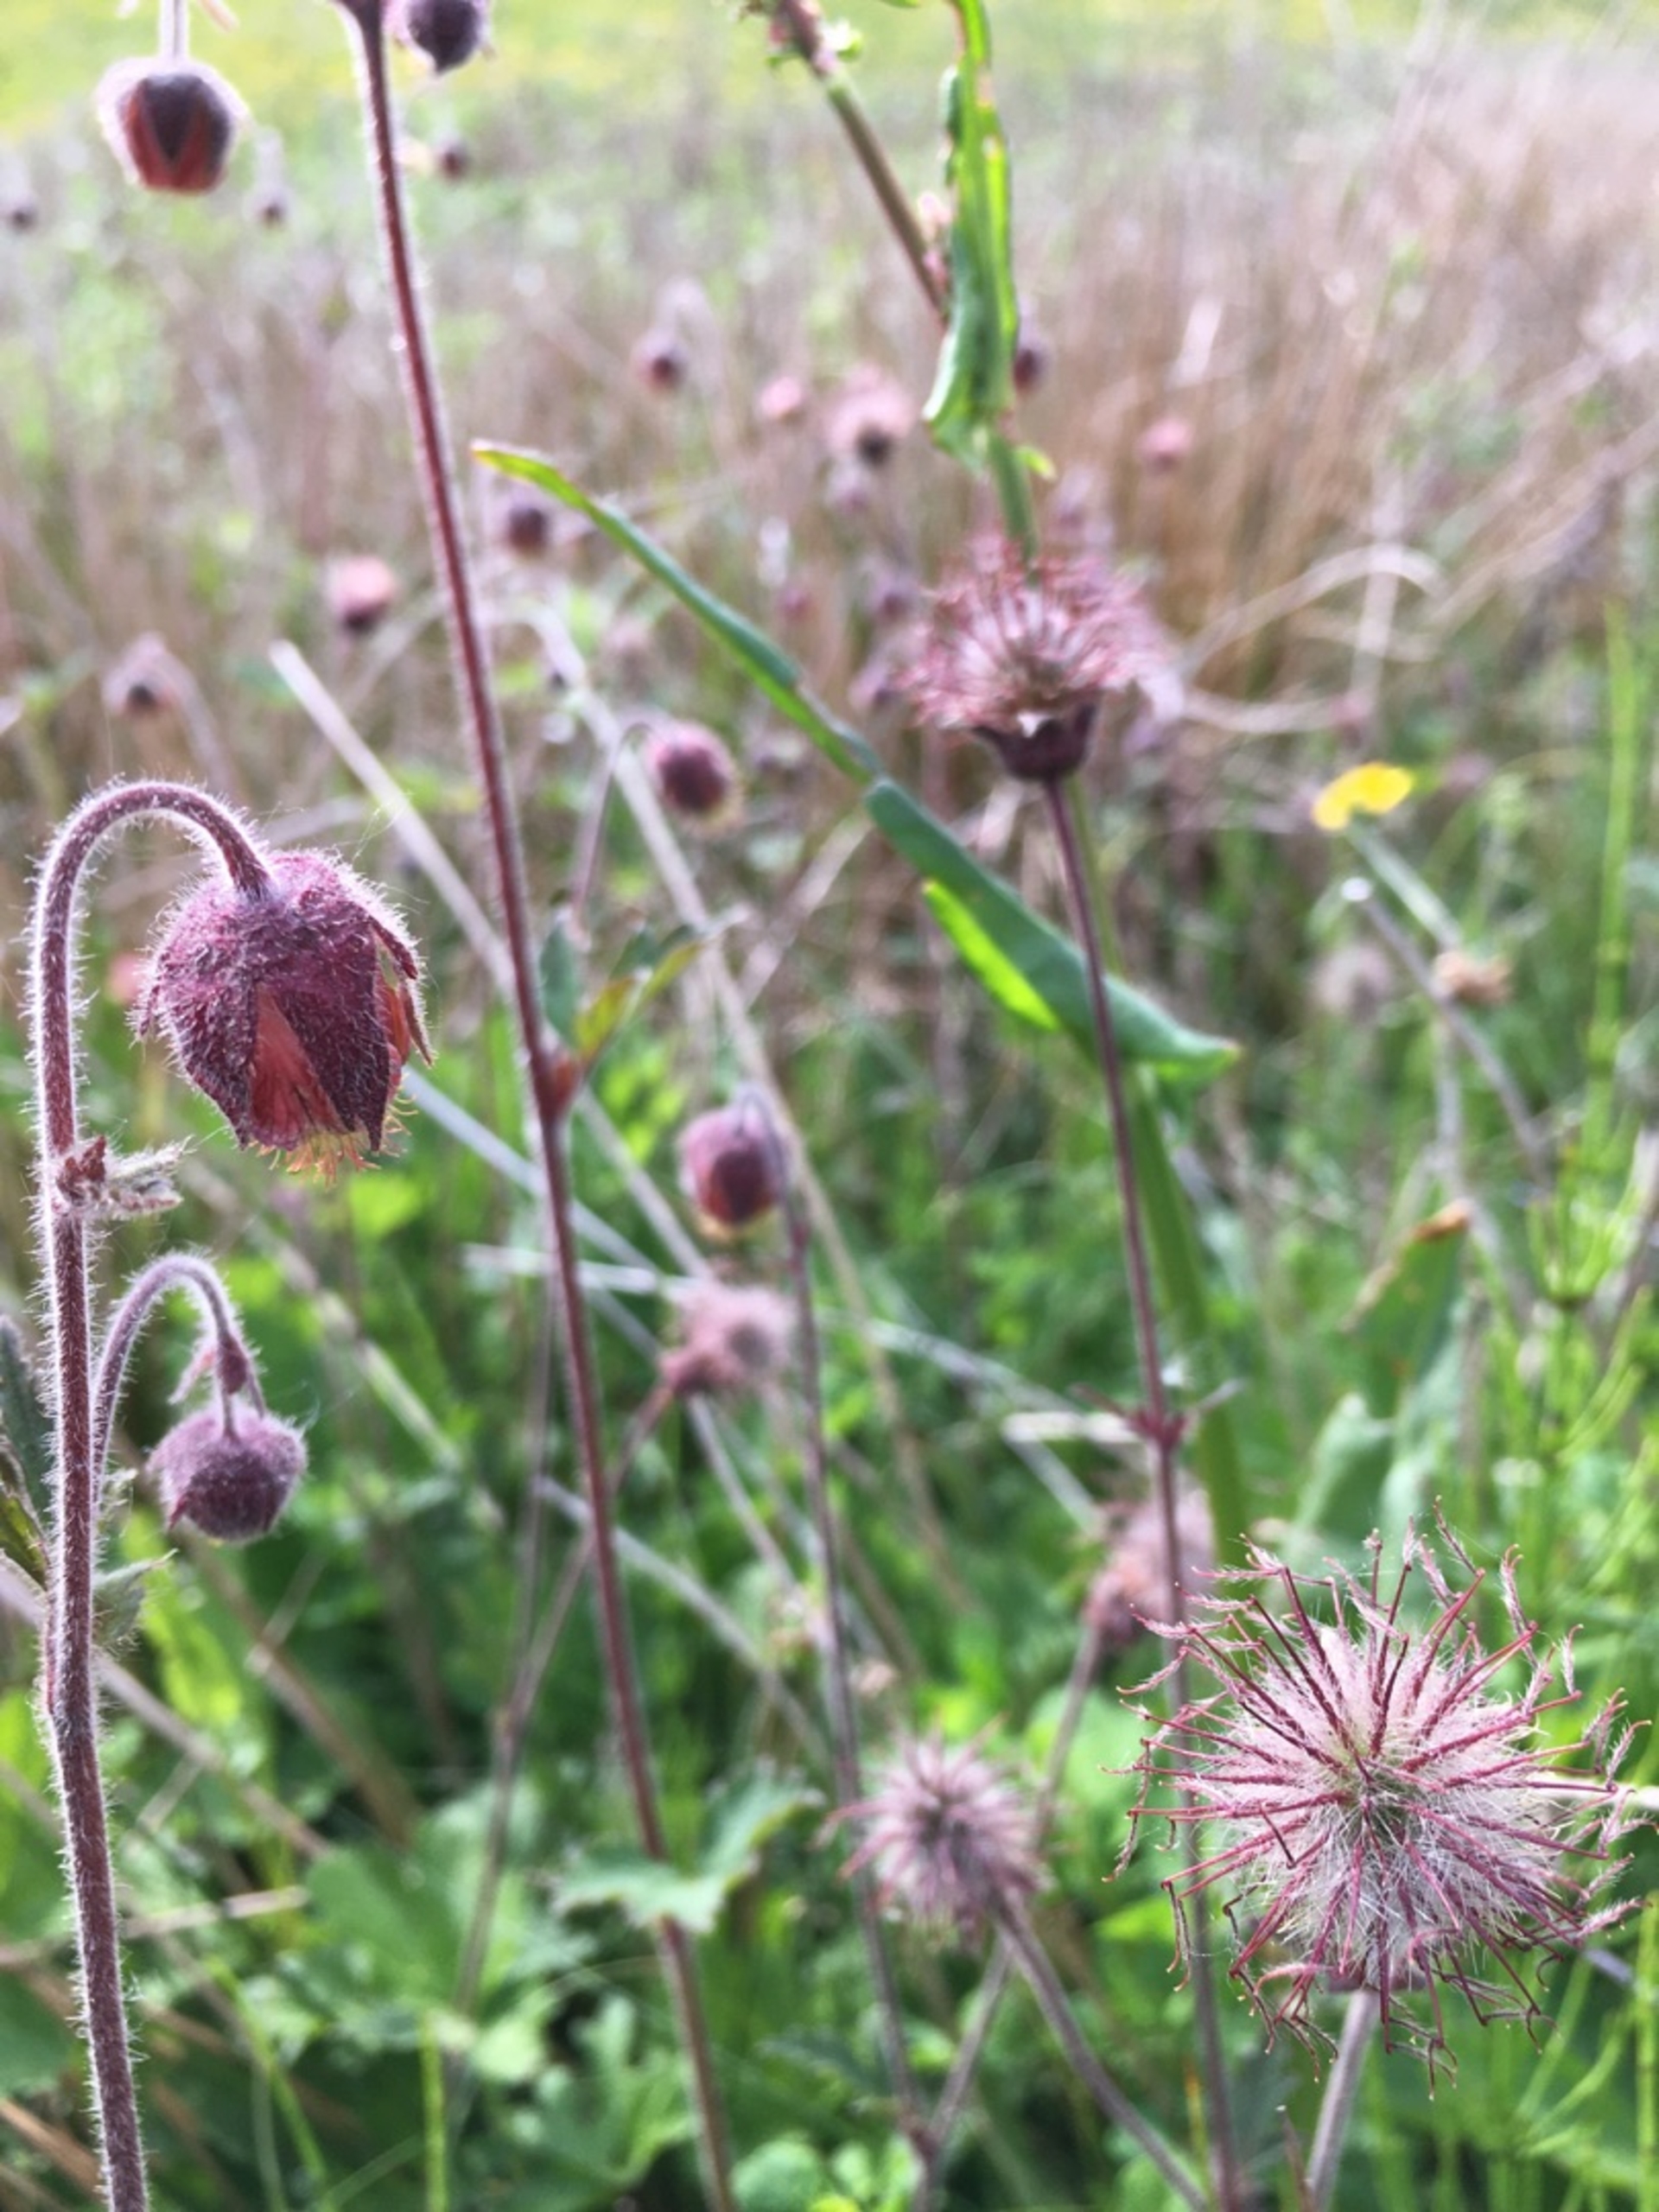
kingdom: Plantae
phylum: Tracheophyta
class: Magnoliopsida
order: Rosales
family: Rosaceae
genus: Geum
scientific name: Geum rivale
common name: Eng-nellikerod
